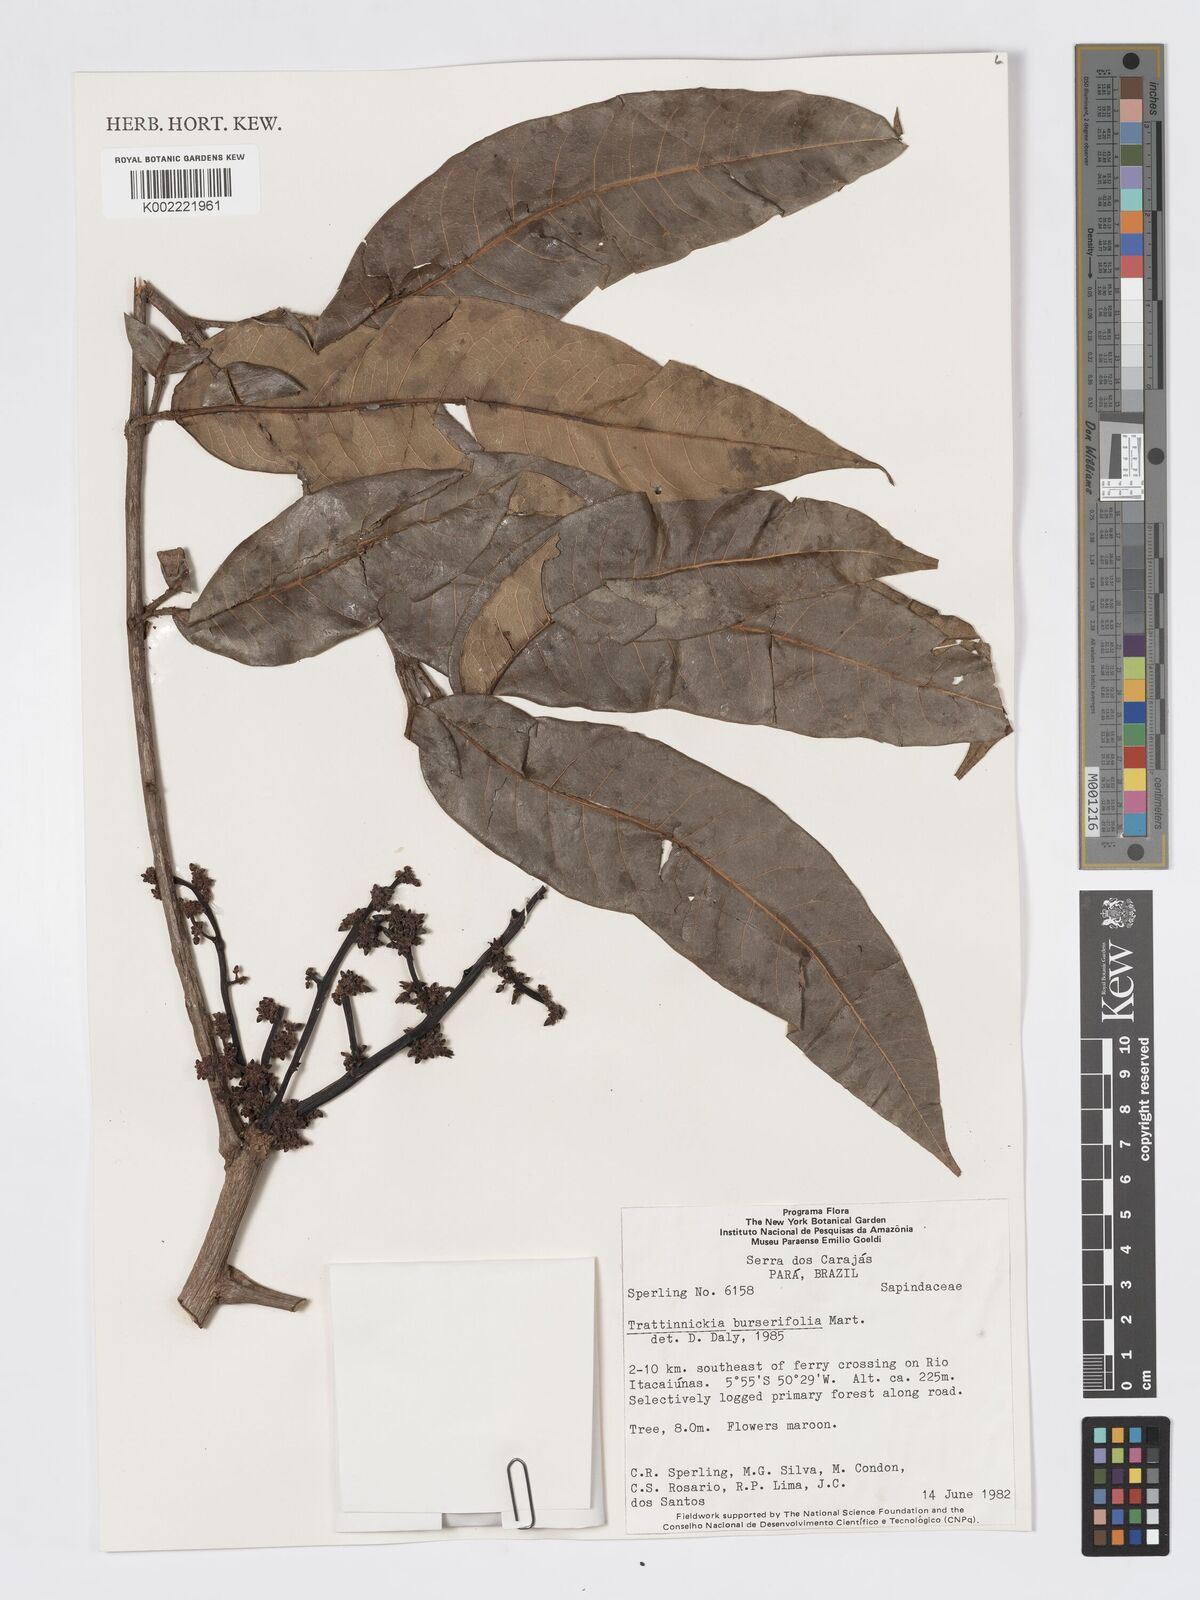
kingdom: Plantae
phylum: Tracheophyta
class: Magnoliopsida
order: Sapindales
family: Burseraceae
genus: Trattinnickia
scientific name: Trattinnickia burserifolia
